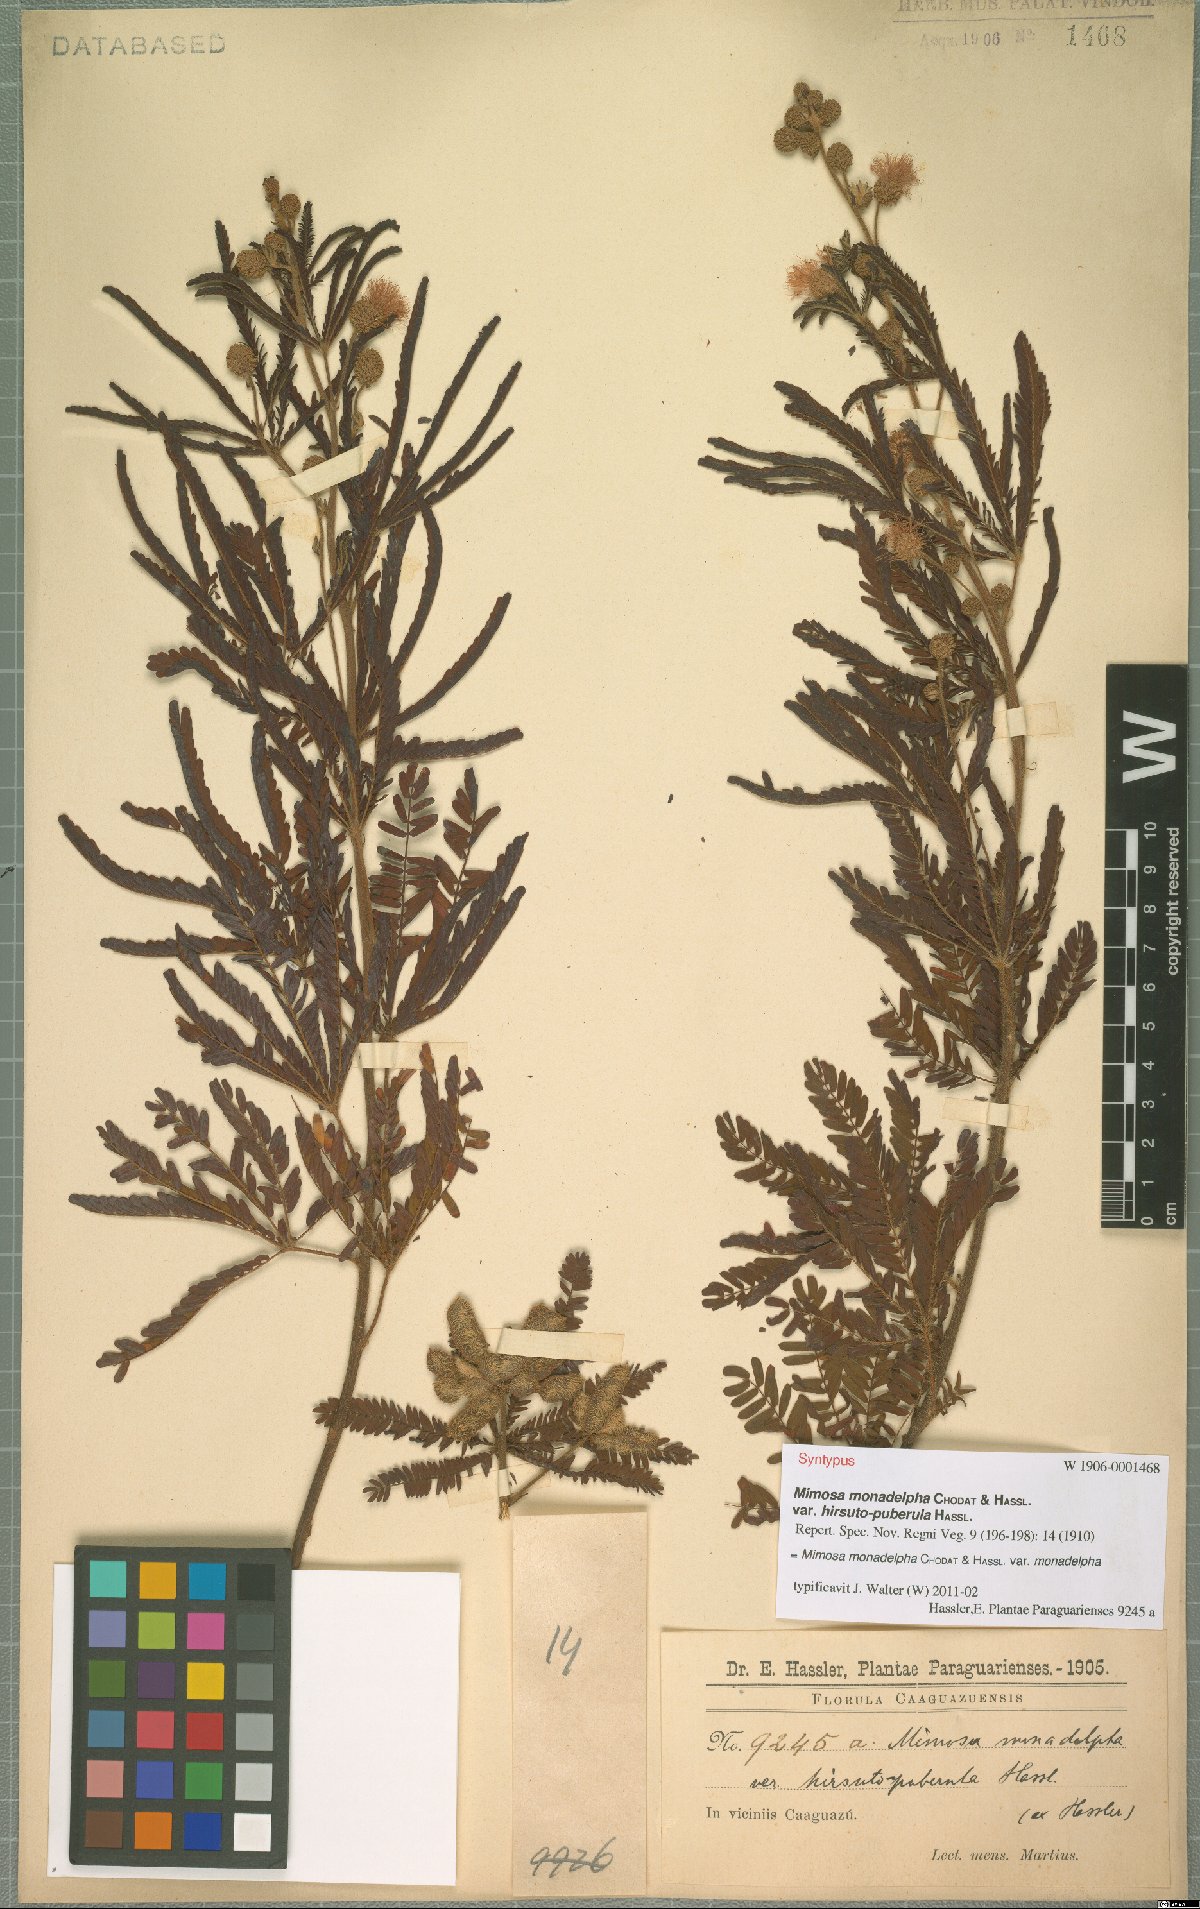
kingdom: Plantae
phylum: Tracheophyta
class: Magnoliopsida
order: Fabales
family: Fabaceae
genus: Mimosa
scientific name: Mimosa monodelpha
